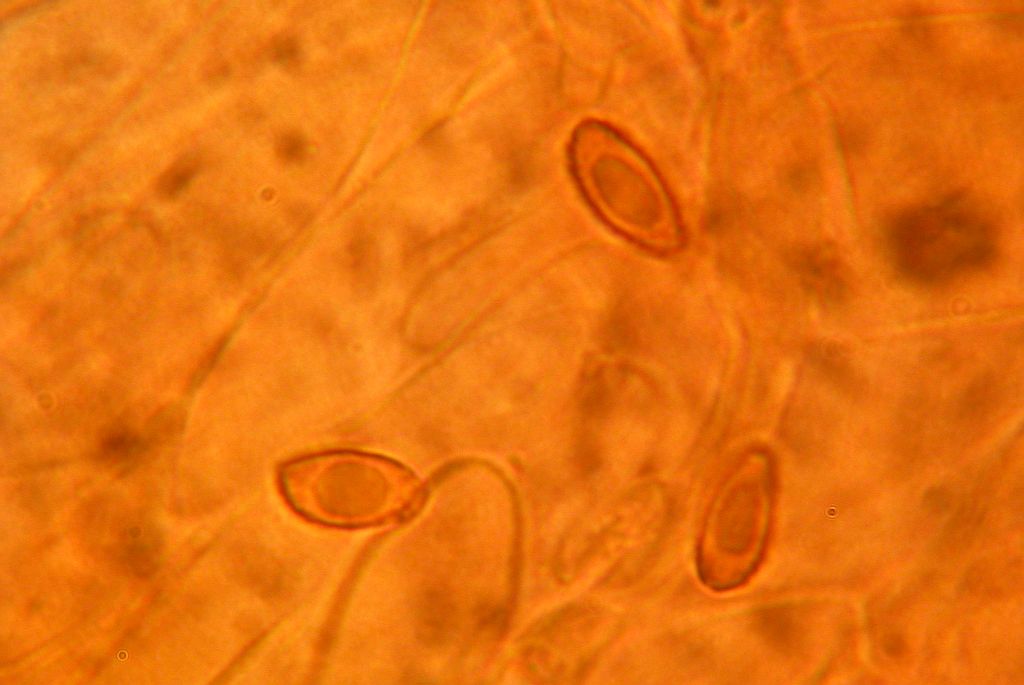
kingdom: Fungi
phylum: Basidiomycota
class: Agaricomycetes
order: Agaricales
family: Cortinariaceae
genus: Cortinarius
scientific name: Cortinarius inconspicuus
